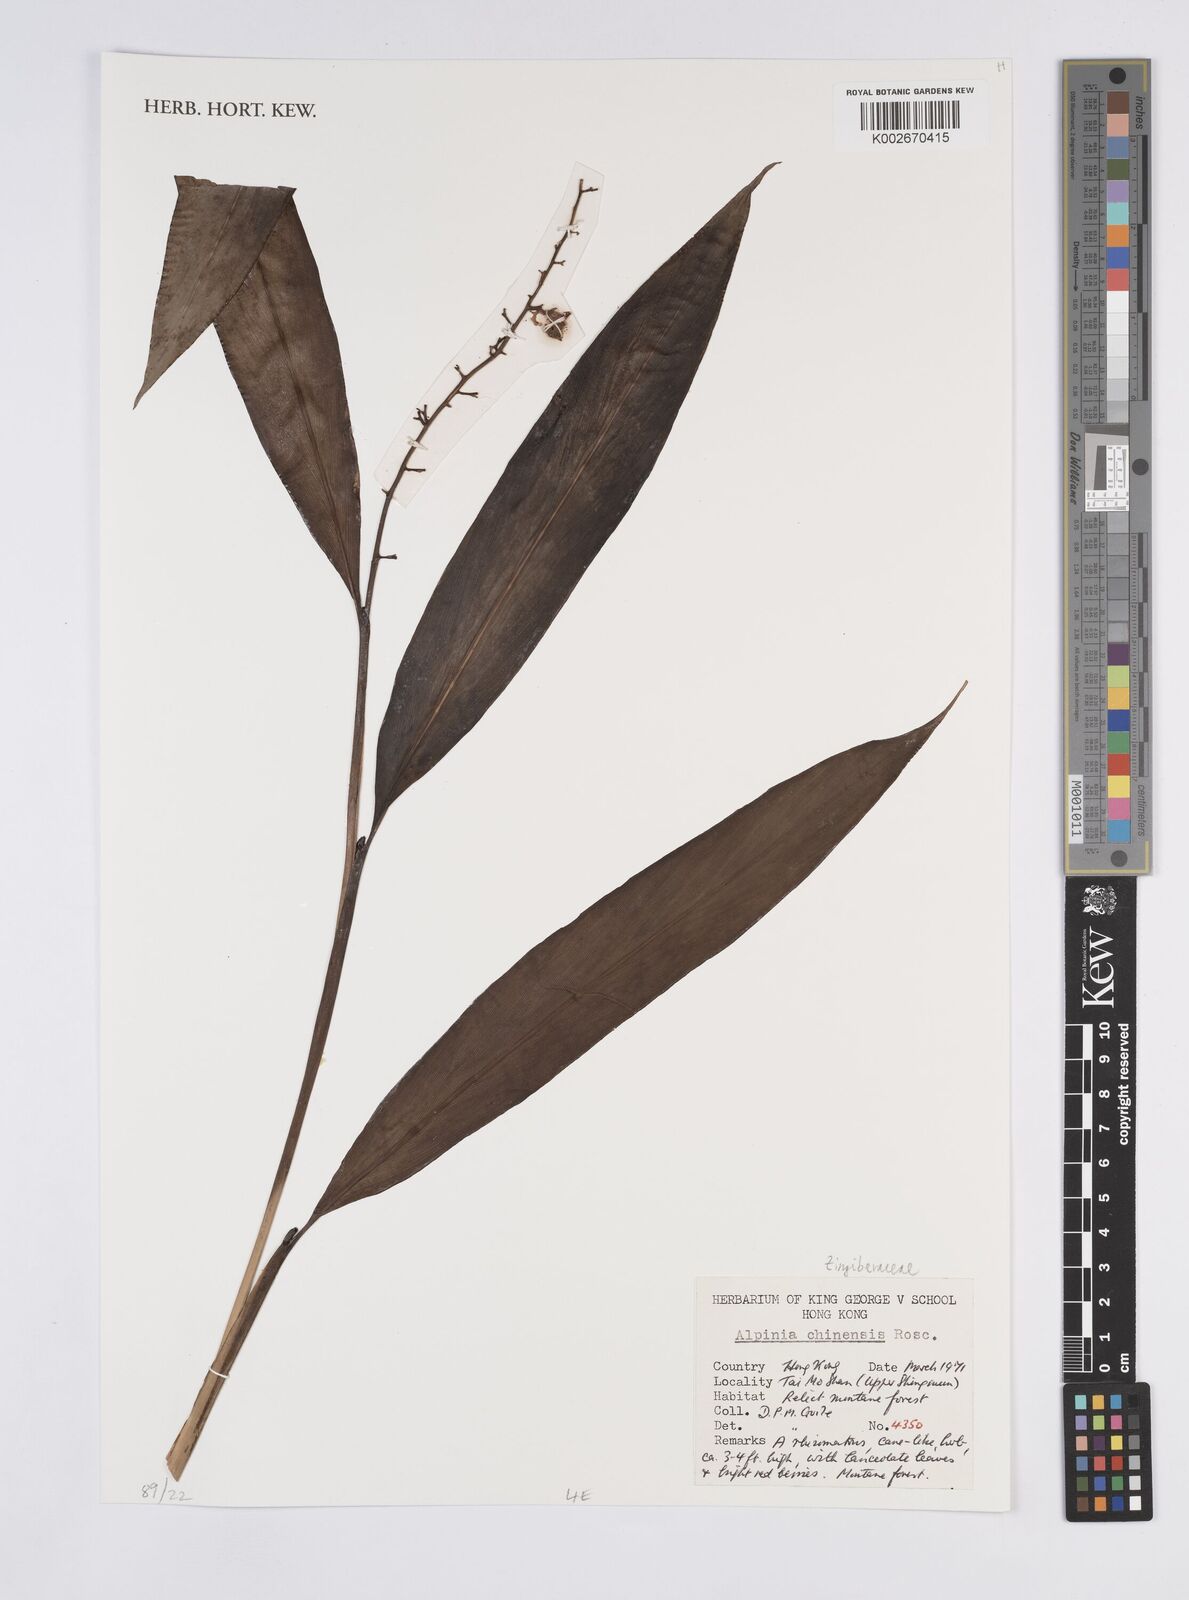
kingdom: Plantae
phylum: Tracheophyta
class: Liliopsida
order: Zingiberales
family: Zingiberaceae
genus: Alpinia
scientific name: Alpinia chinensis
